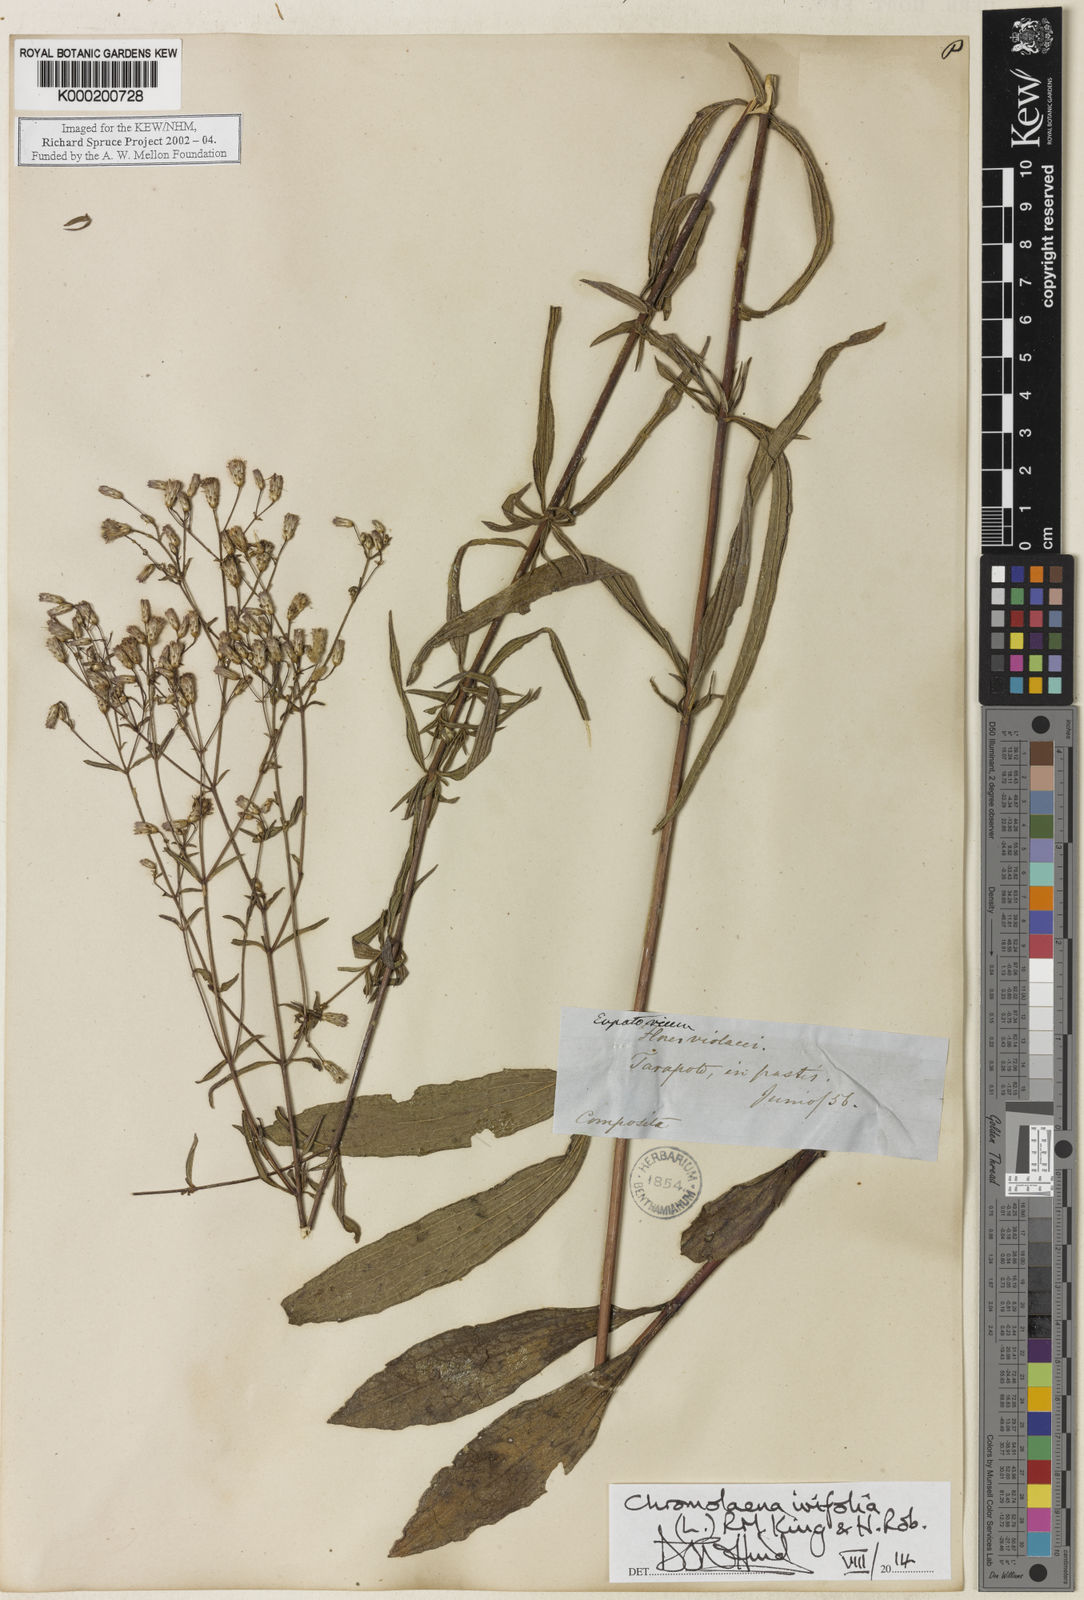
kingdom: Plantae
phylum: Tracheophyta
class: Magnoliopsida
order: Asterales
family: Asteraceae
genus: Chromolaena
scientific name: Chromolaena ivifolia
